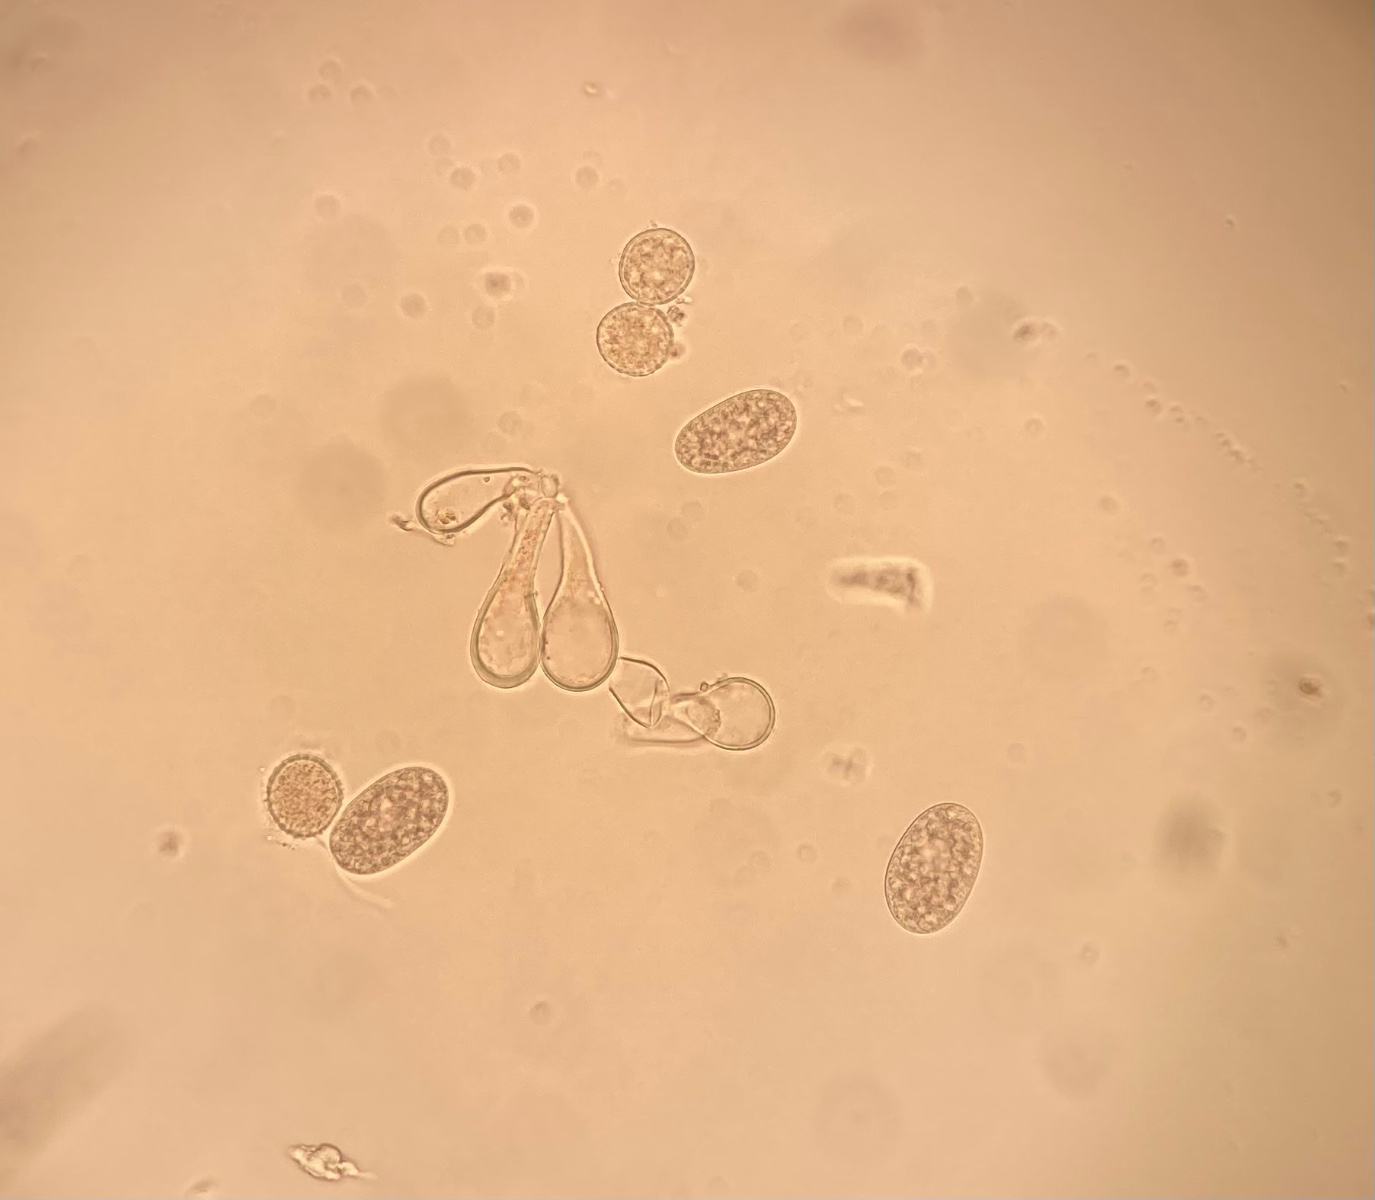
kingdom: Fungi
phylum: Basidiomycota
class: Pucciniomycetes
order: Pucciniales
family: Melampsoraceae
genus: Melampsora
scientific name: Melampsora epitea
